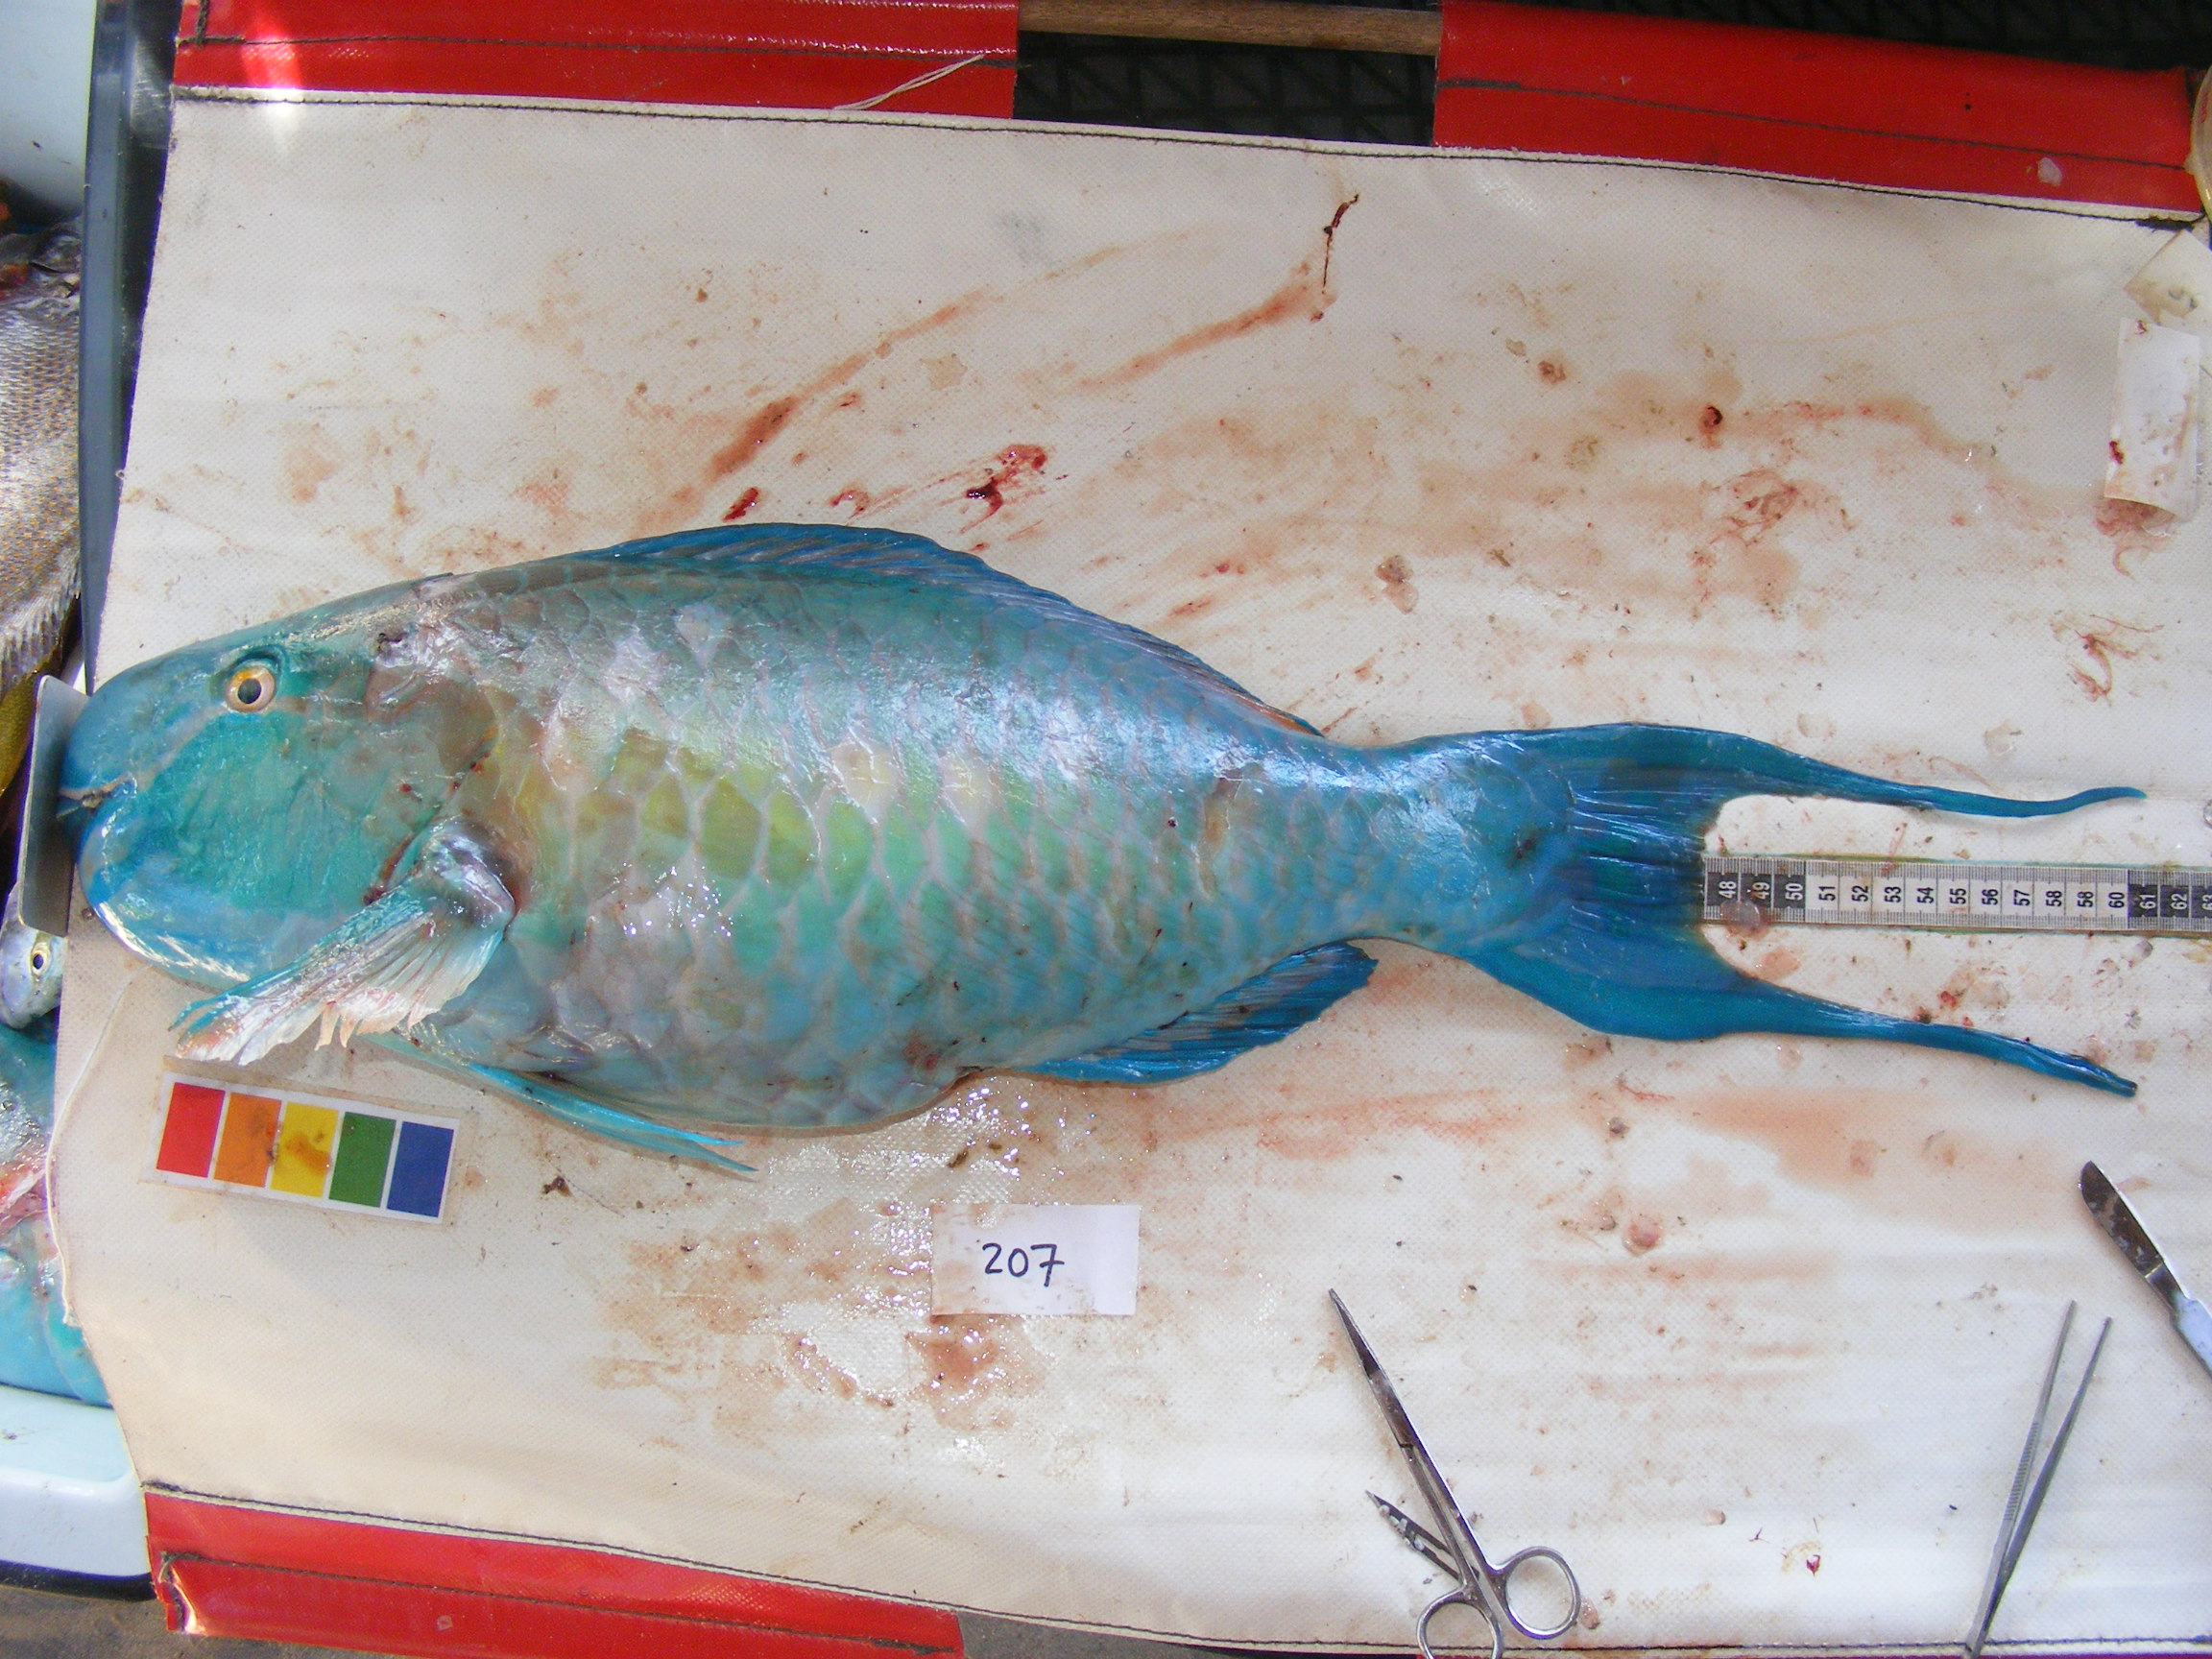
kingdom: Animalia
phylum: Chordata
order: Perciformes
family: Scaridae
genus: Scarus
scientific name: Scarus rubroviolaceus
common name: Ember parrotfish
